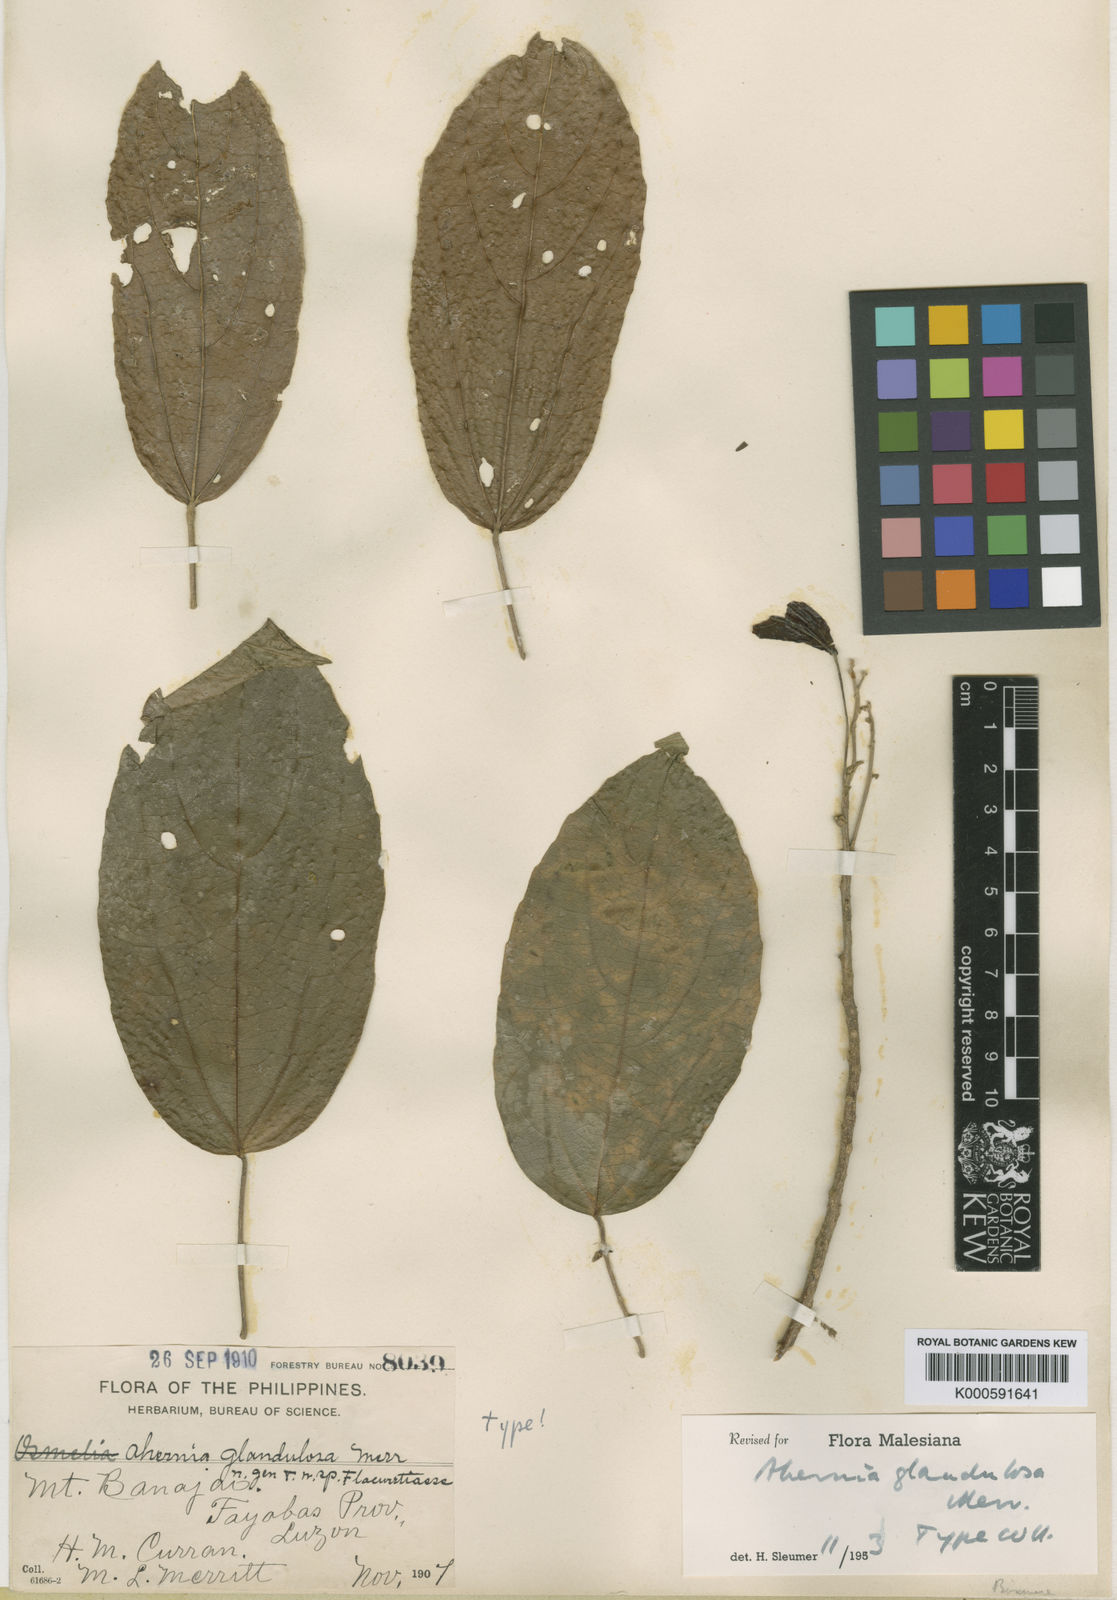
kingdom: Plantae
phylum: Tracheophyta
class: Magnoliopsida
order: Malpighiales
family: Achariaceae
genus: Ahernia
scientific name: Ahernia
